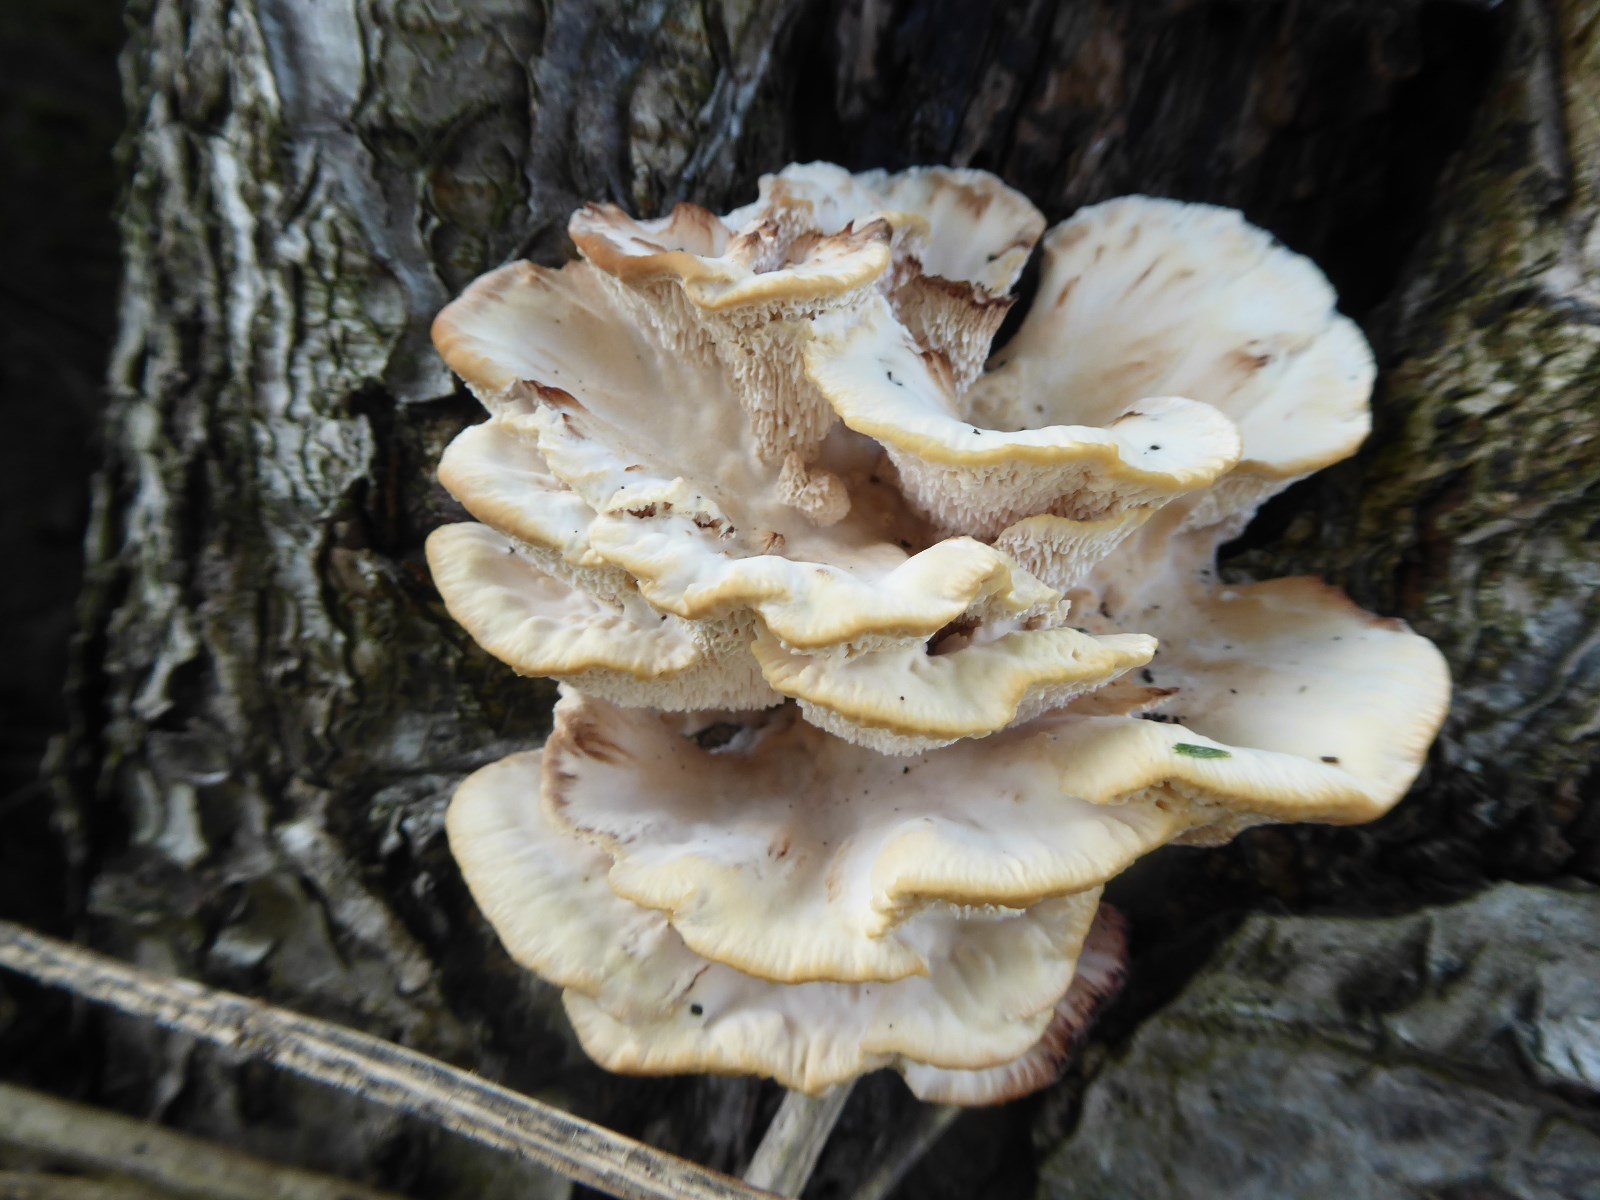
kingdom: Fungi
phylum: Basidiomycota
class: Agaricomycetes
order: Polyporales
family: Podoscyphaceae
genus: Abortiporus
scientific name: Abortiporus biennis
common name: rødmende pjalteporesvamp
